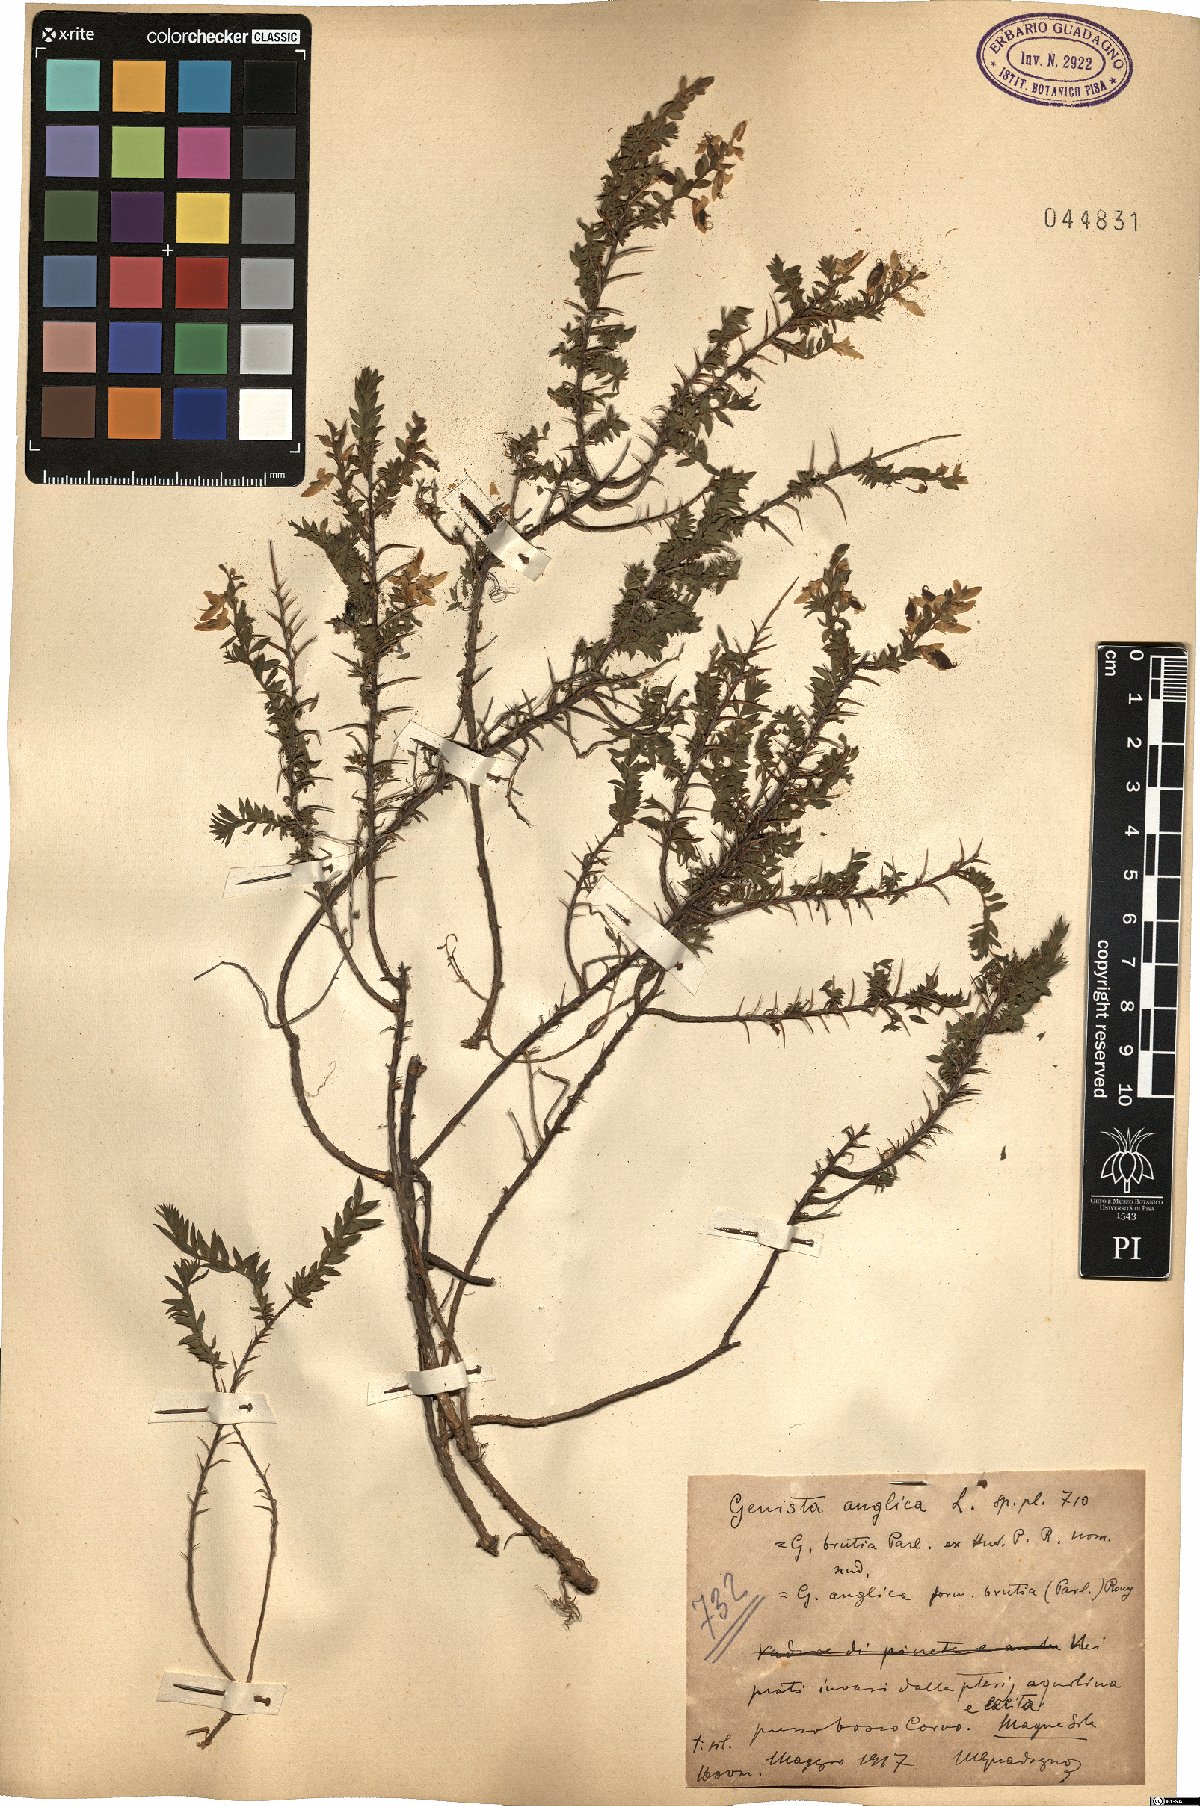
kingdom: Plantae
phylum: Tracheophyta
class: Magnoliopsida
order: Fabales
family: Fabaceae
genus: Genista
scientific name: Genista anglica
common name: Petty whin
